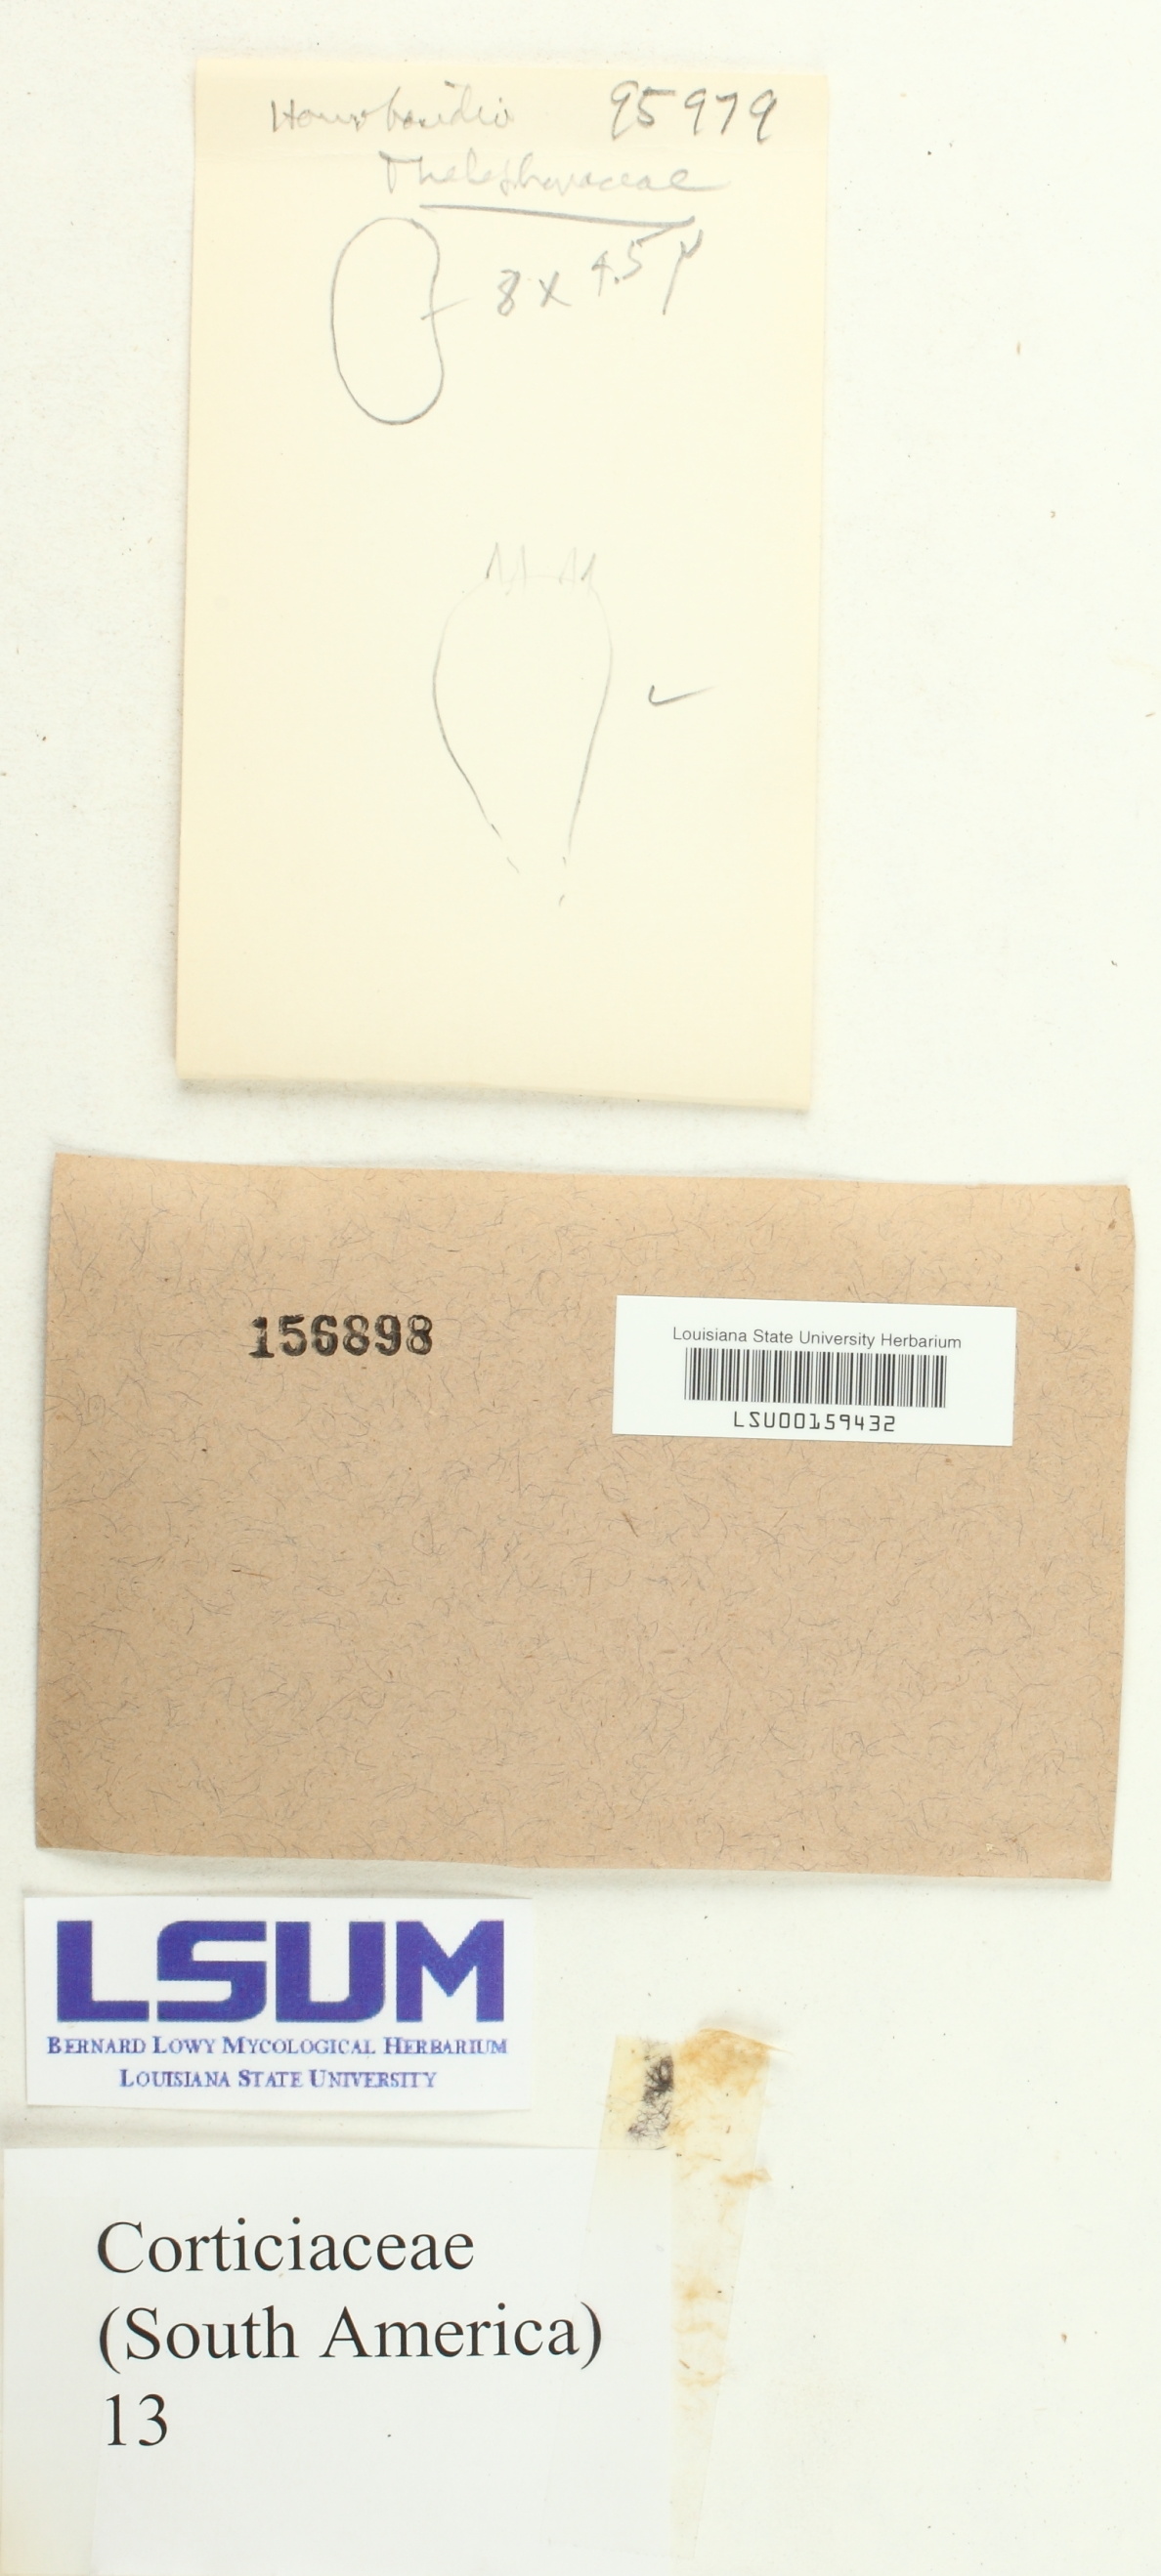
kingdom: Fungi
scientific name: Fungi
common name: Fungi
